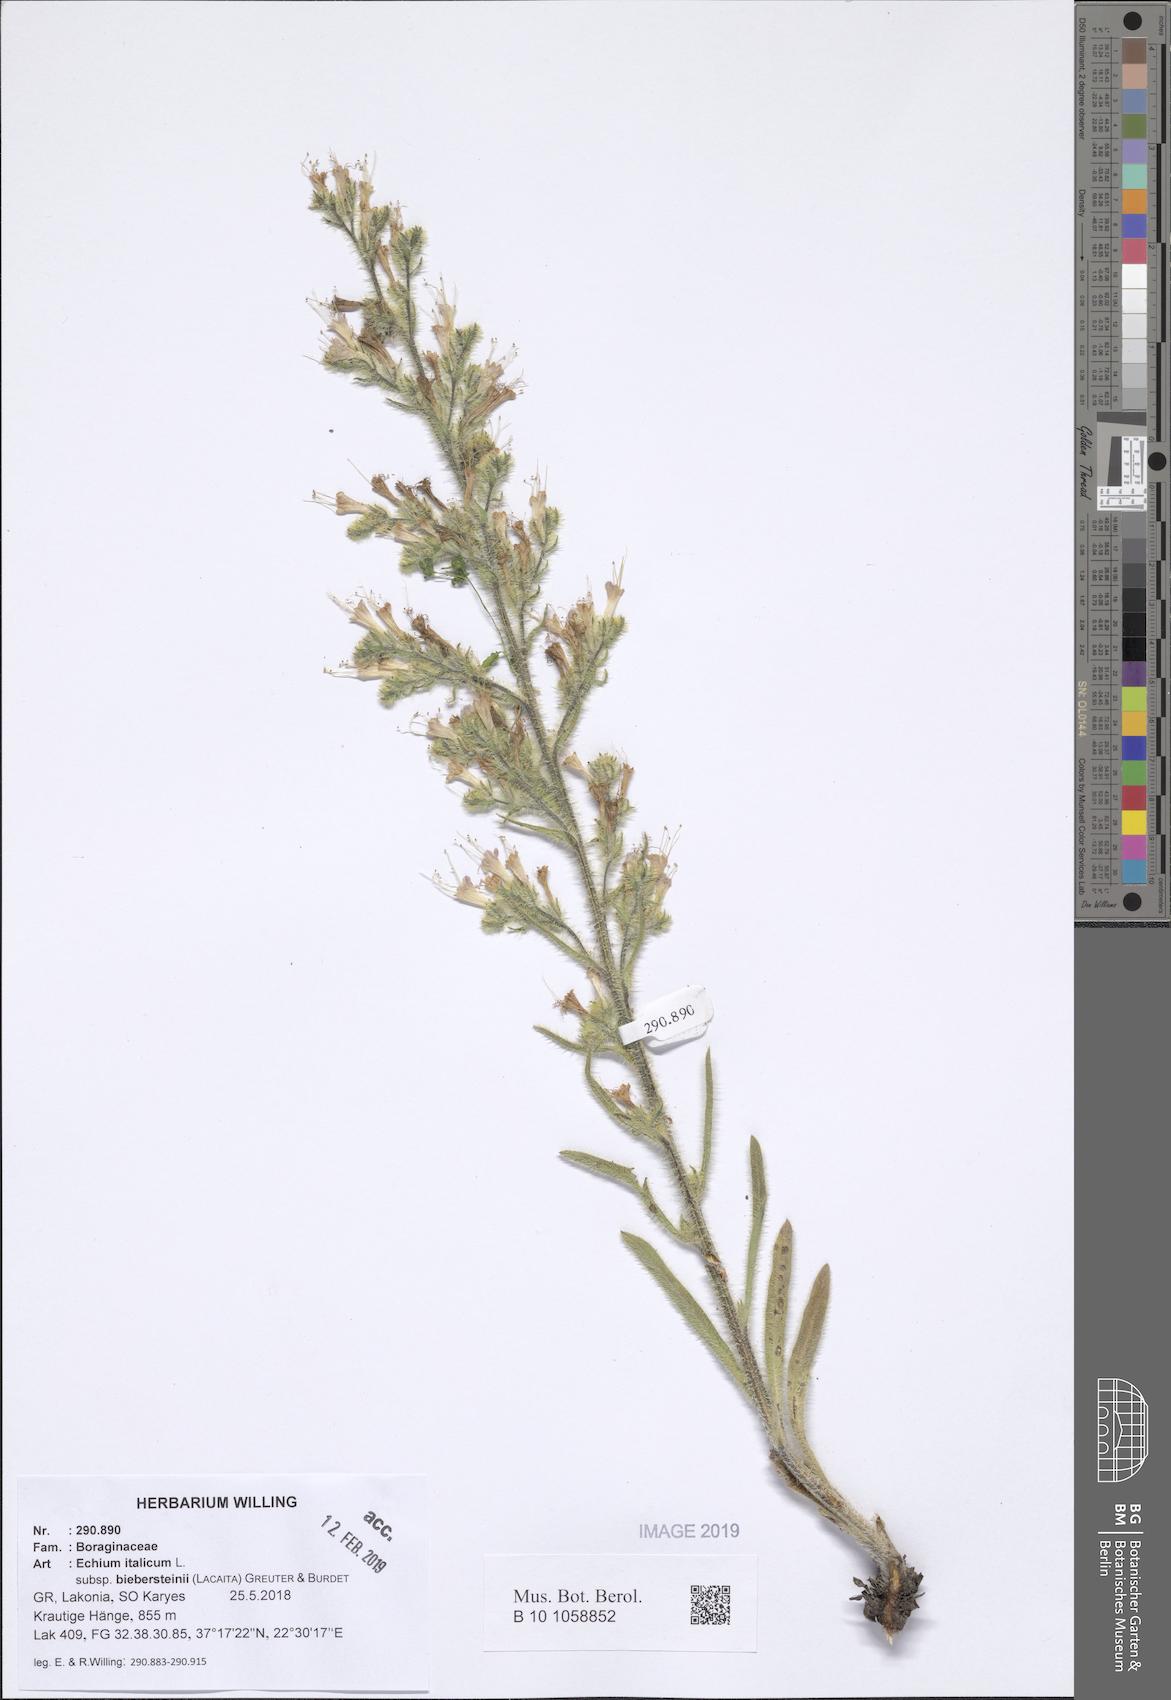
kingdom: Plantae
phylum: Tracheophyta
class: Magnoliopsida
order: Boraginales
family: Boraginaceae
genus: Echium
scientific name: Echium italicum
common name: Italian viper's bugloss
